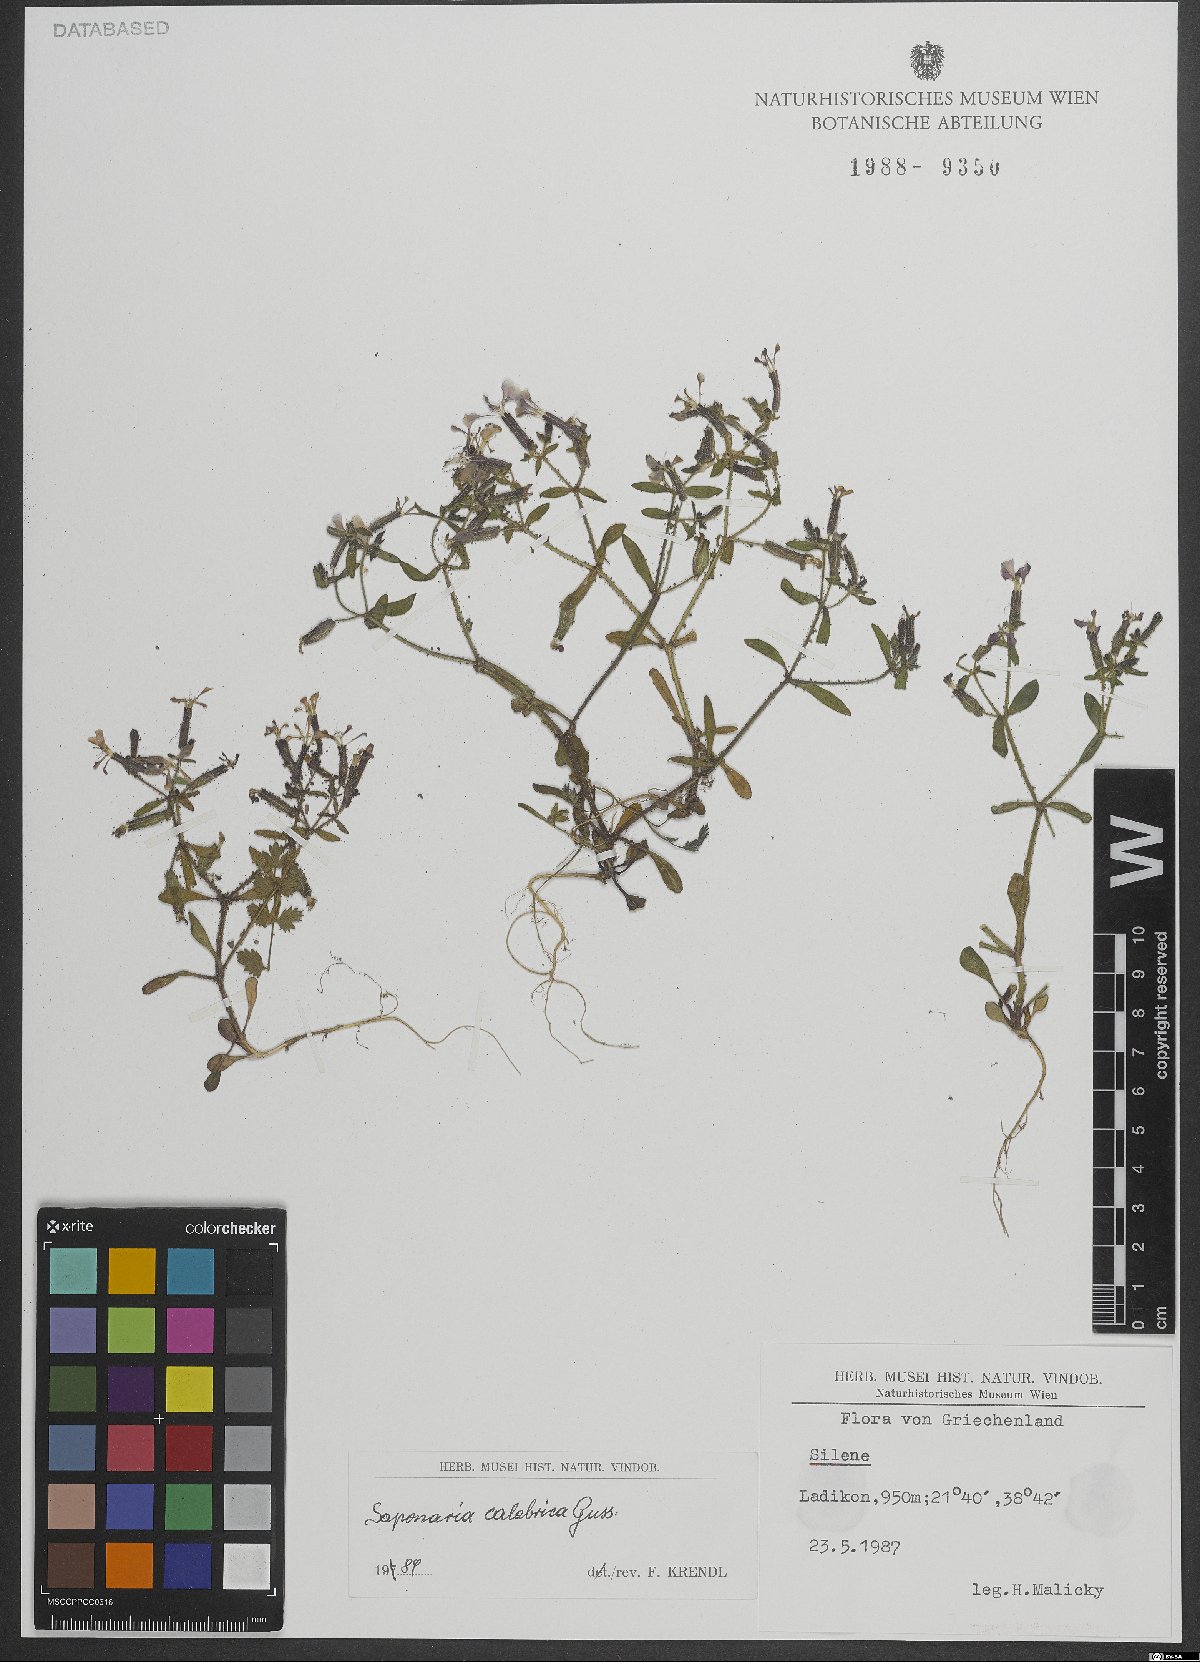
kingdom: Plantae
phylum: Tracheophyta
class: Magnoliopsida
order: Caryophyllales
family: Caryophyllaceae
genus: Saponaria
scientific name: Saponaria calabrica
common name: Adriatic soapwort
